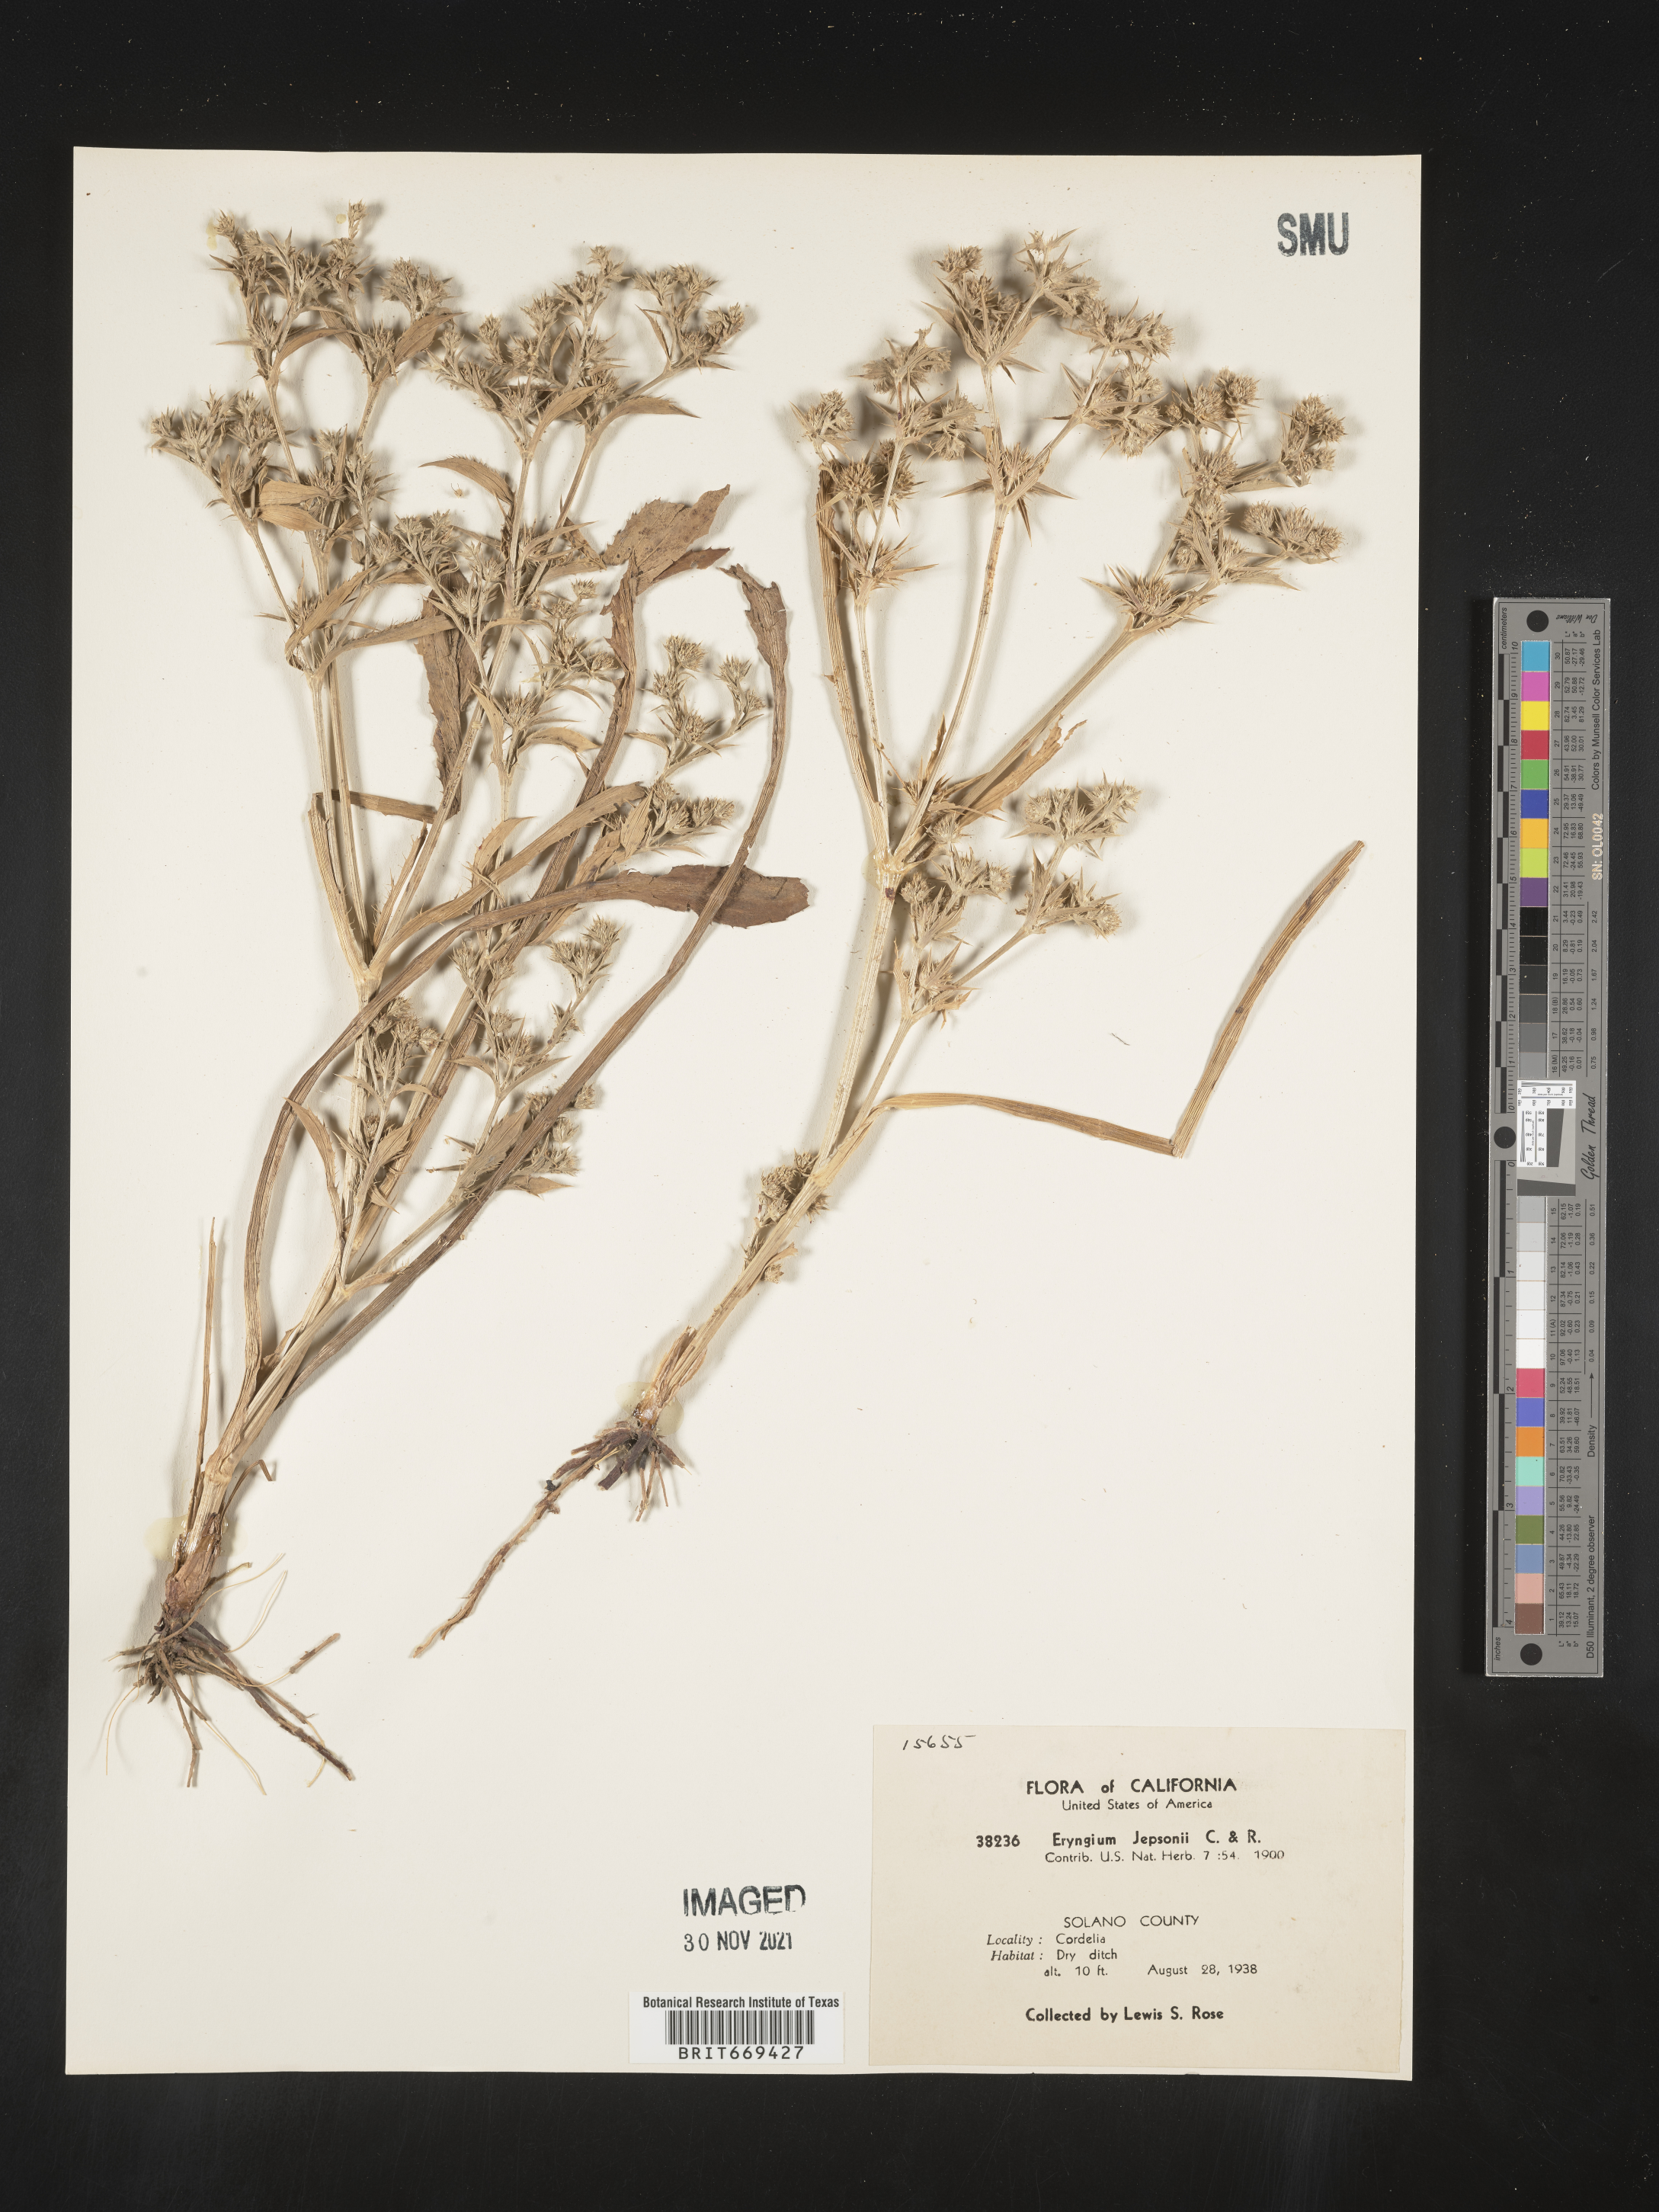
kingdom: Plantae
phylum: Tracheophyta
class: Magnoliopsida
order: Apiales
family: Apiaceae
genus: Eryngium
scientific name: Eryngium aristulatum
